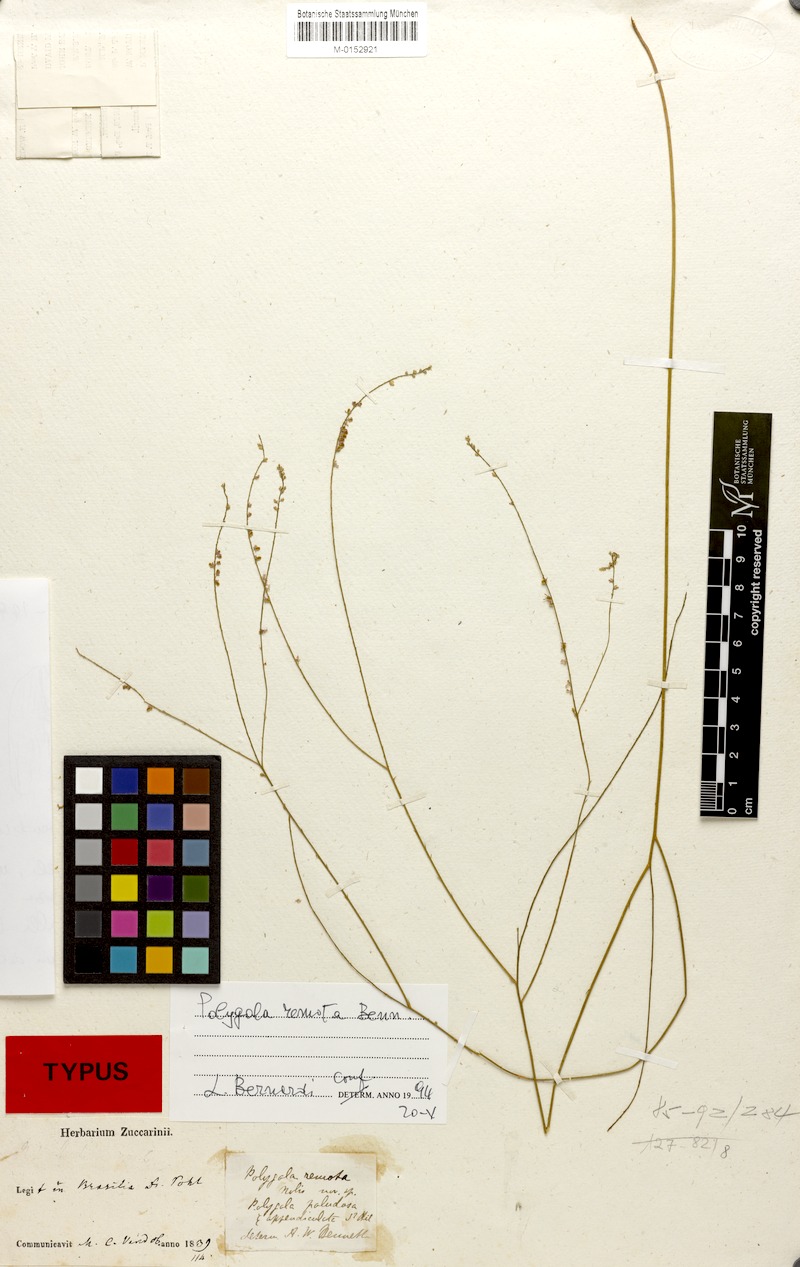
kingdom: Plantae
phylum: Tracheophyta
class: Magnoliopsida
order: Fabales
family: Polygalaceae
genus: Polygala
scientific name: Polygala remota
